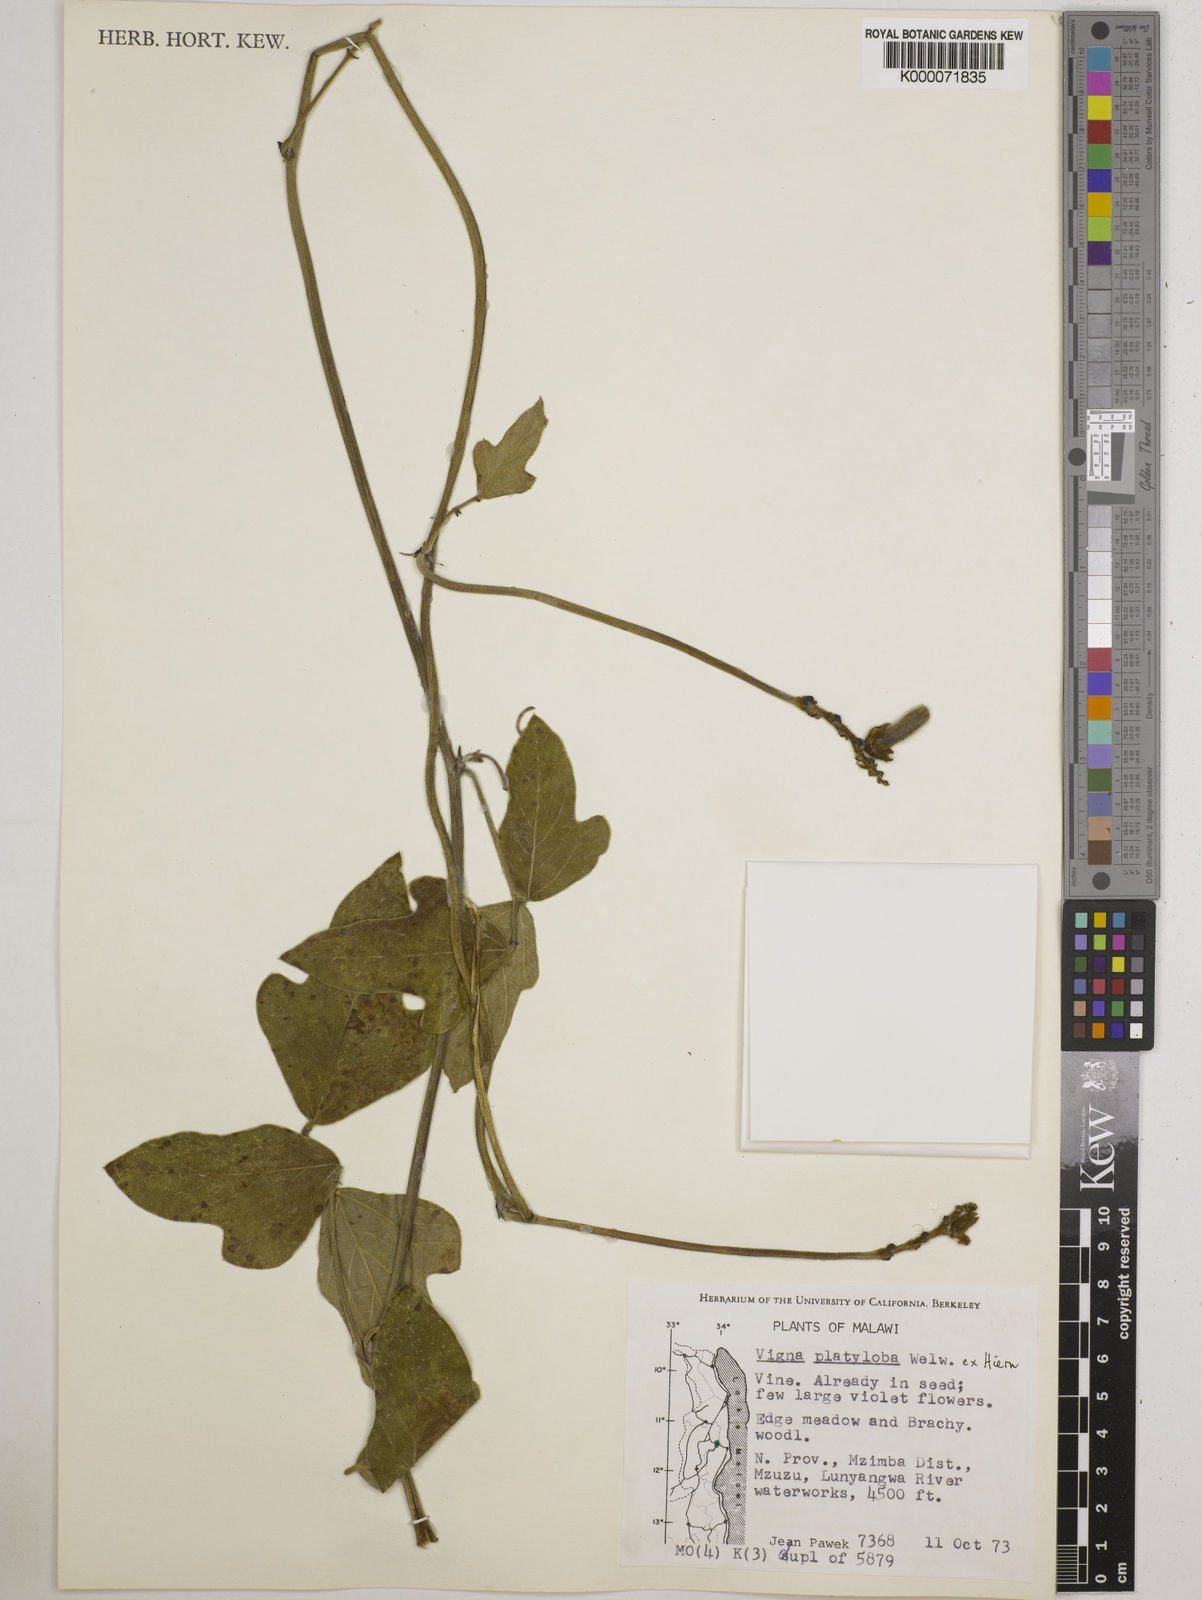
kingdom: Plantae
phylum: Tracheophyta
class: Magnoliopsida
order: Fabales
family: Fabaceae
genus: Vigna
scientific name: Vigna platyloba
